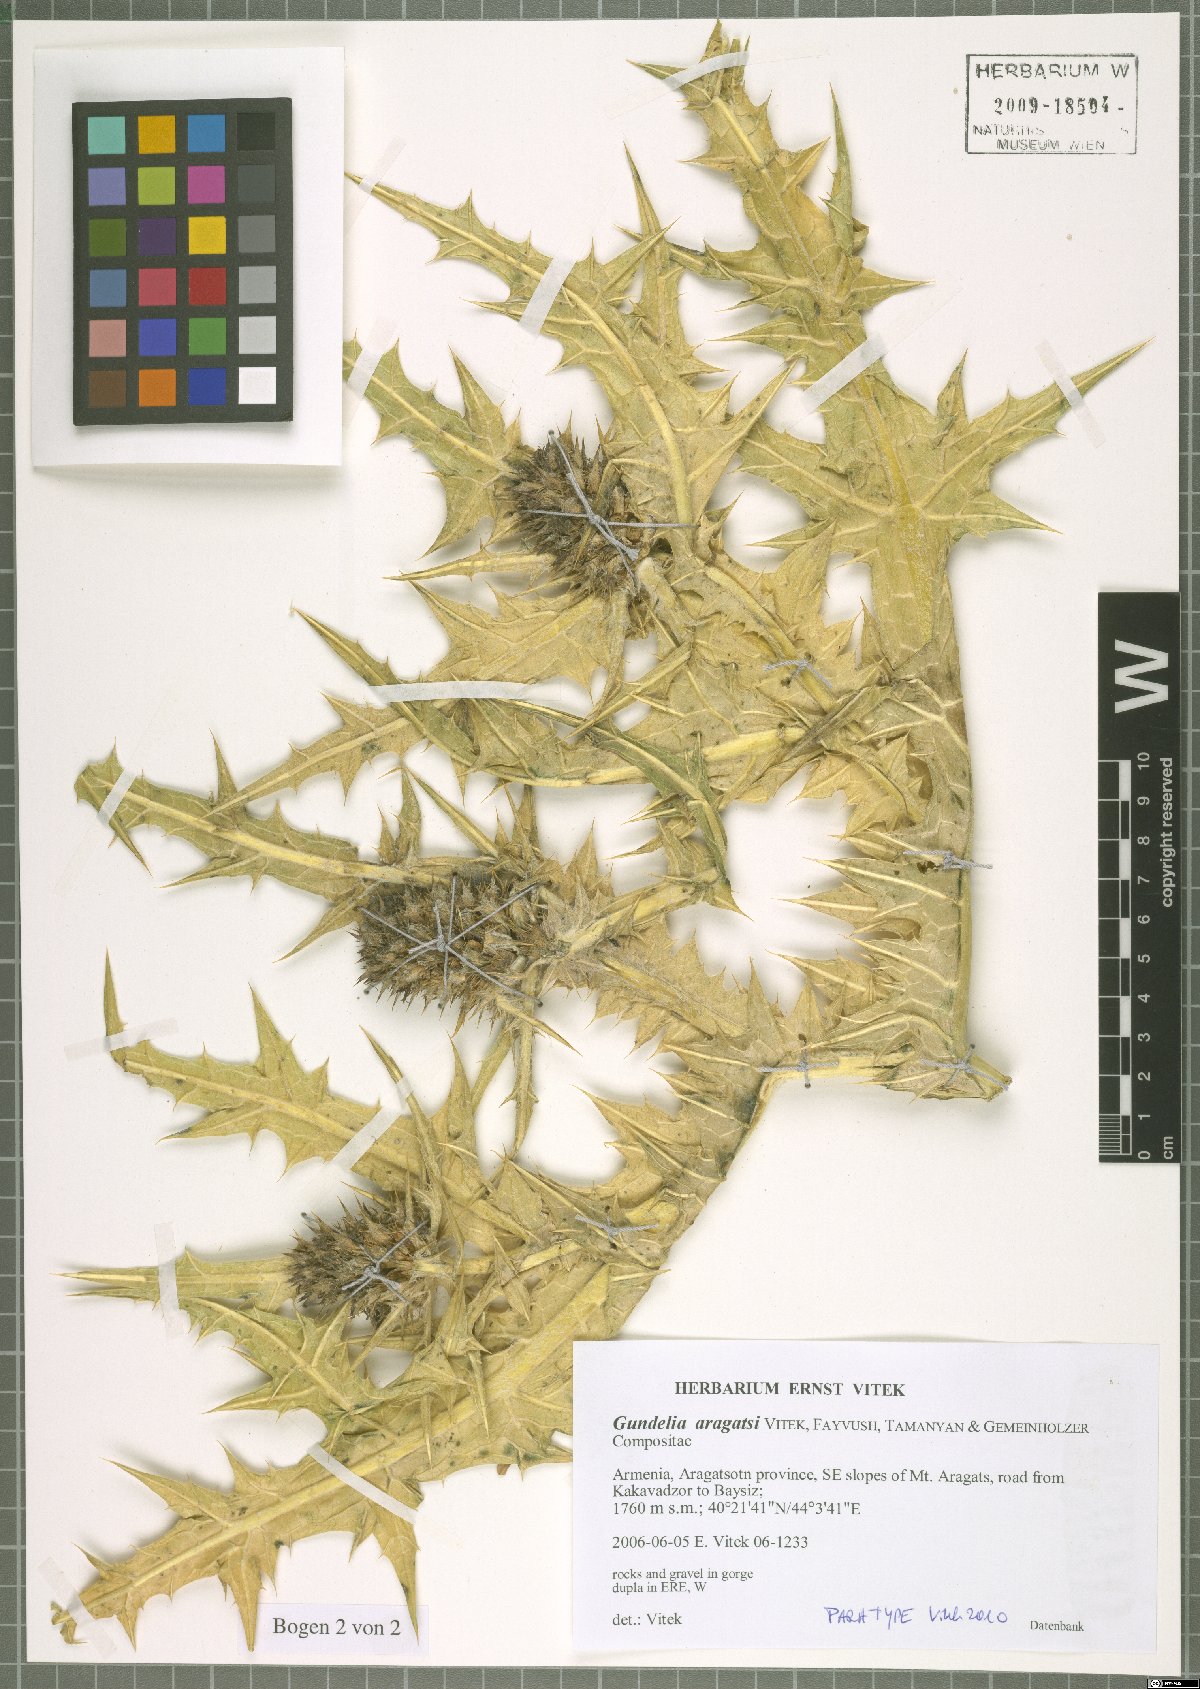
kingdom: Plantae
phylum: Tracheophyta
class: Magnoliopsida
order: Asterales
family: Asteraceae
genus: Gundelia
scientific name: Gundelia aragatsi
